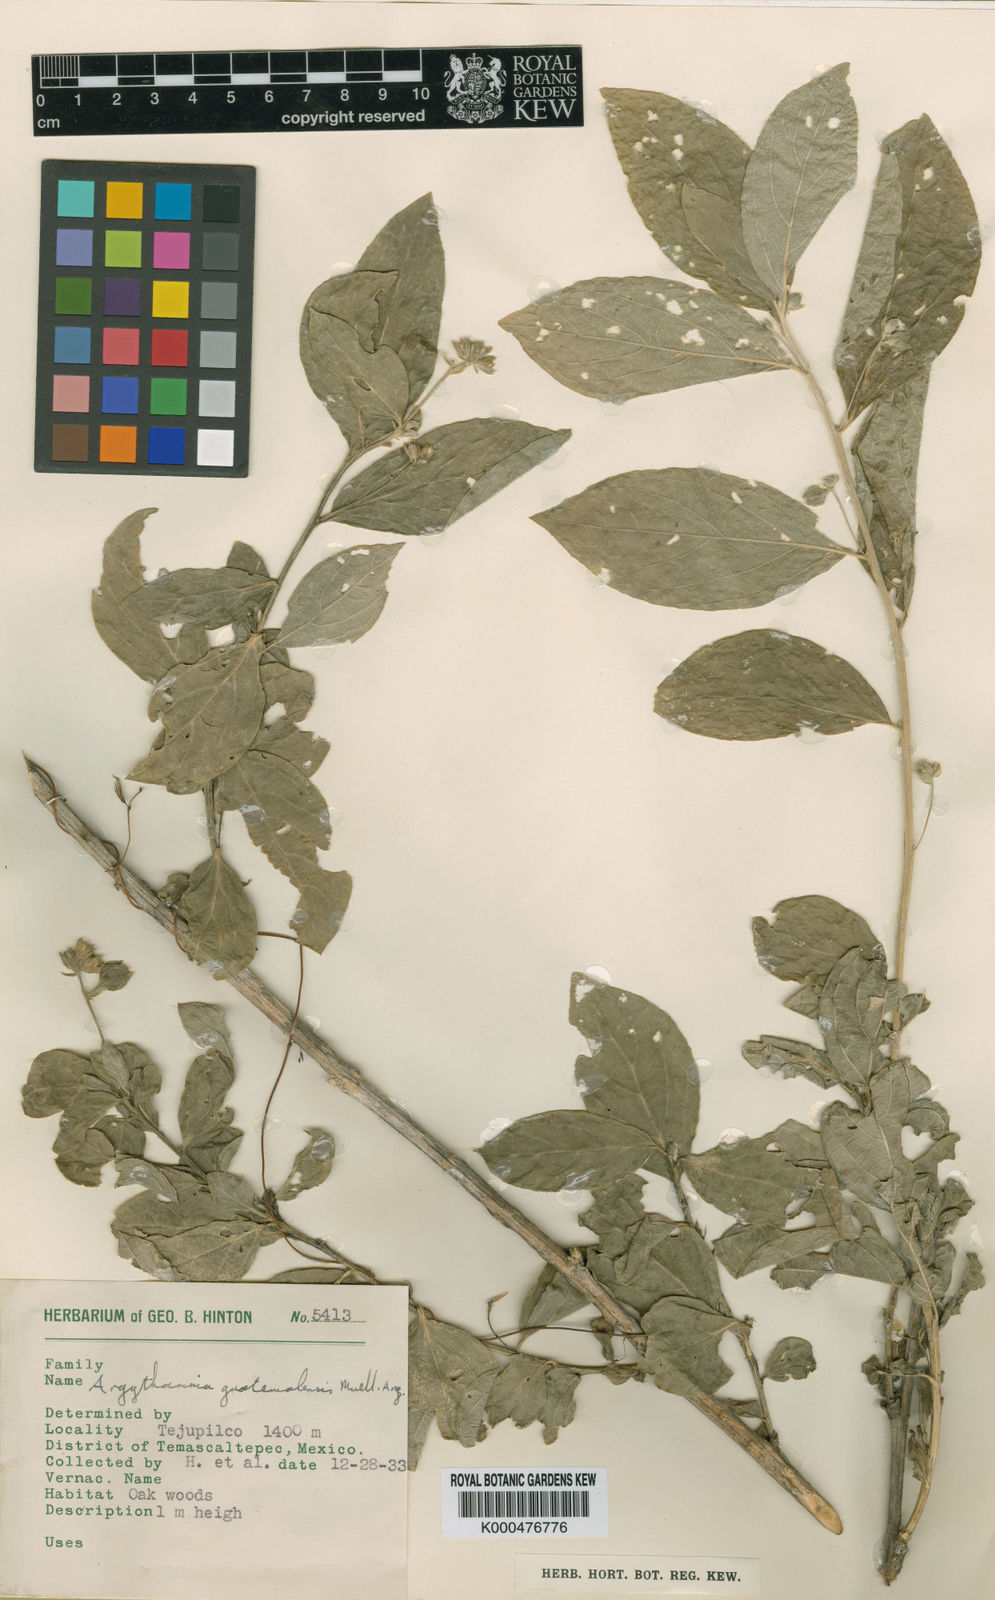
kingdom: Plantae
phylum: Tracheophyta
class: Magnoliopsida
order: Malpighiales
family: Euphorbiaceae
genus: Ditaxis
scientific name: Ditaxis
